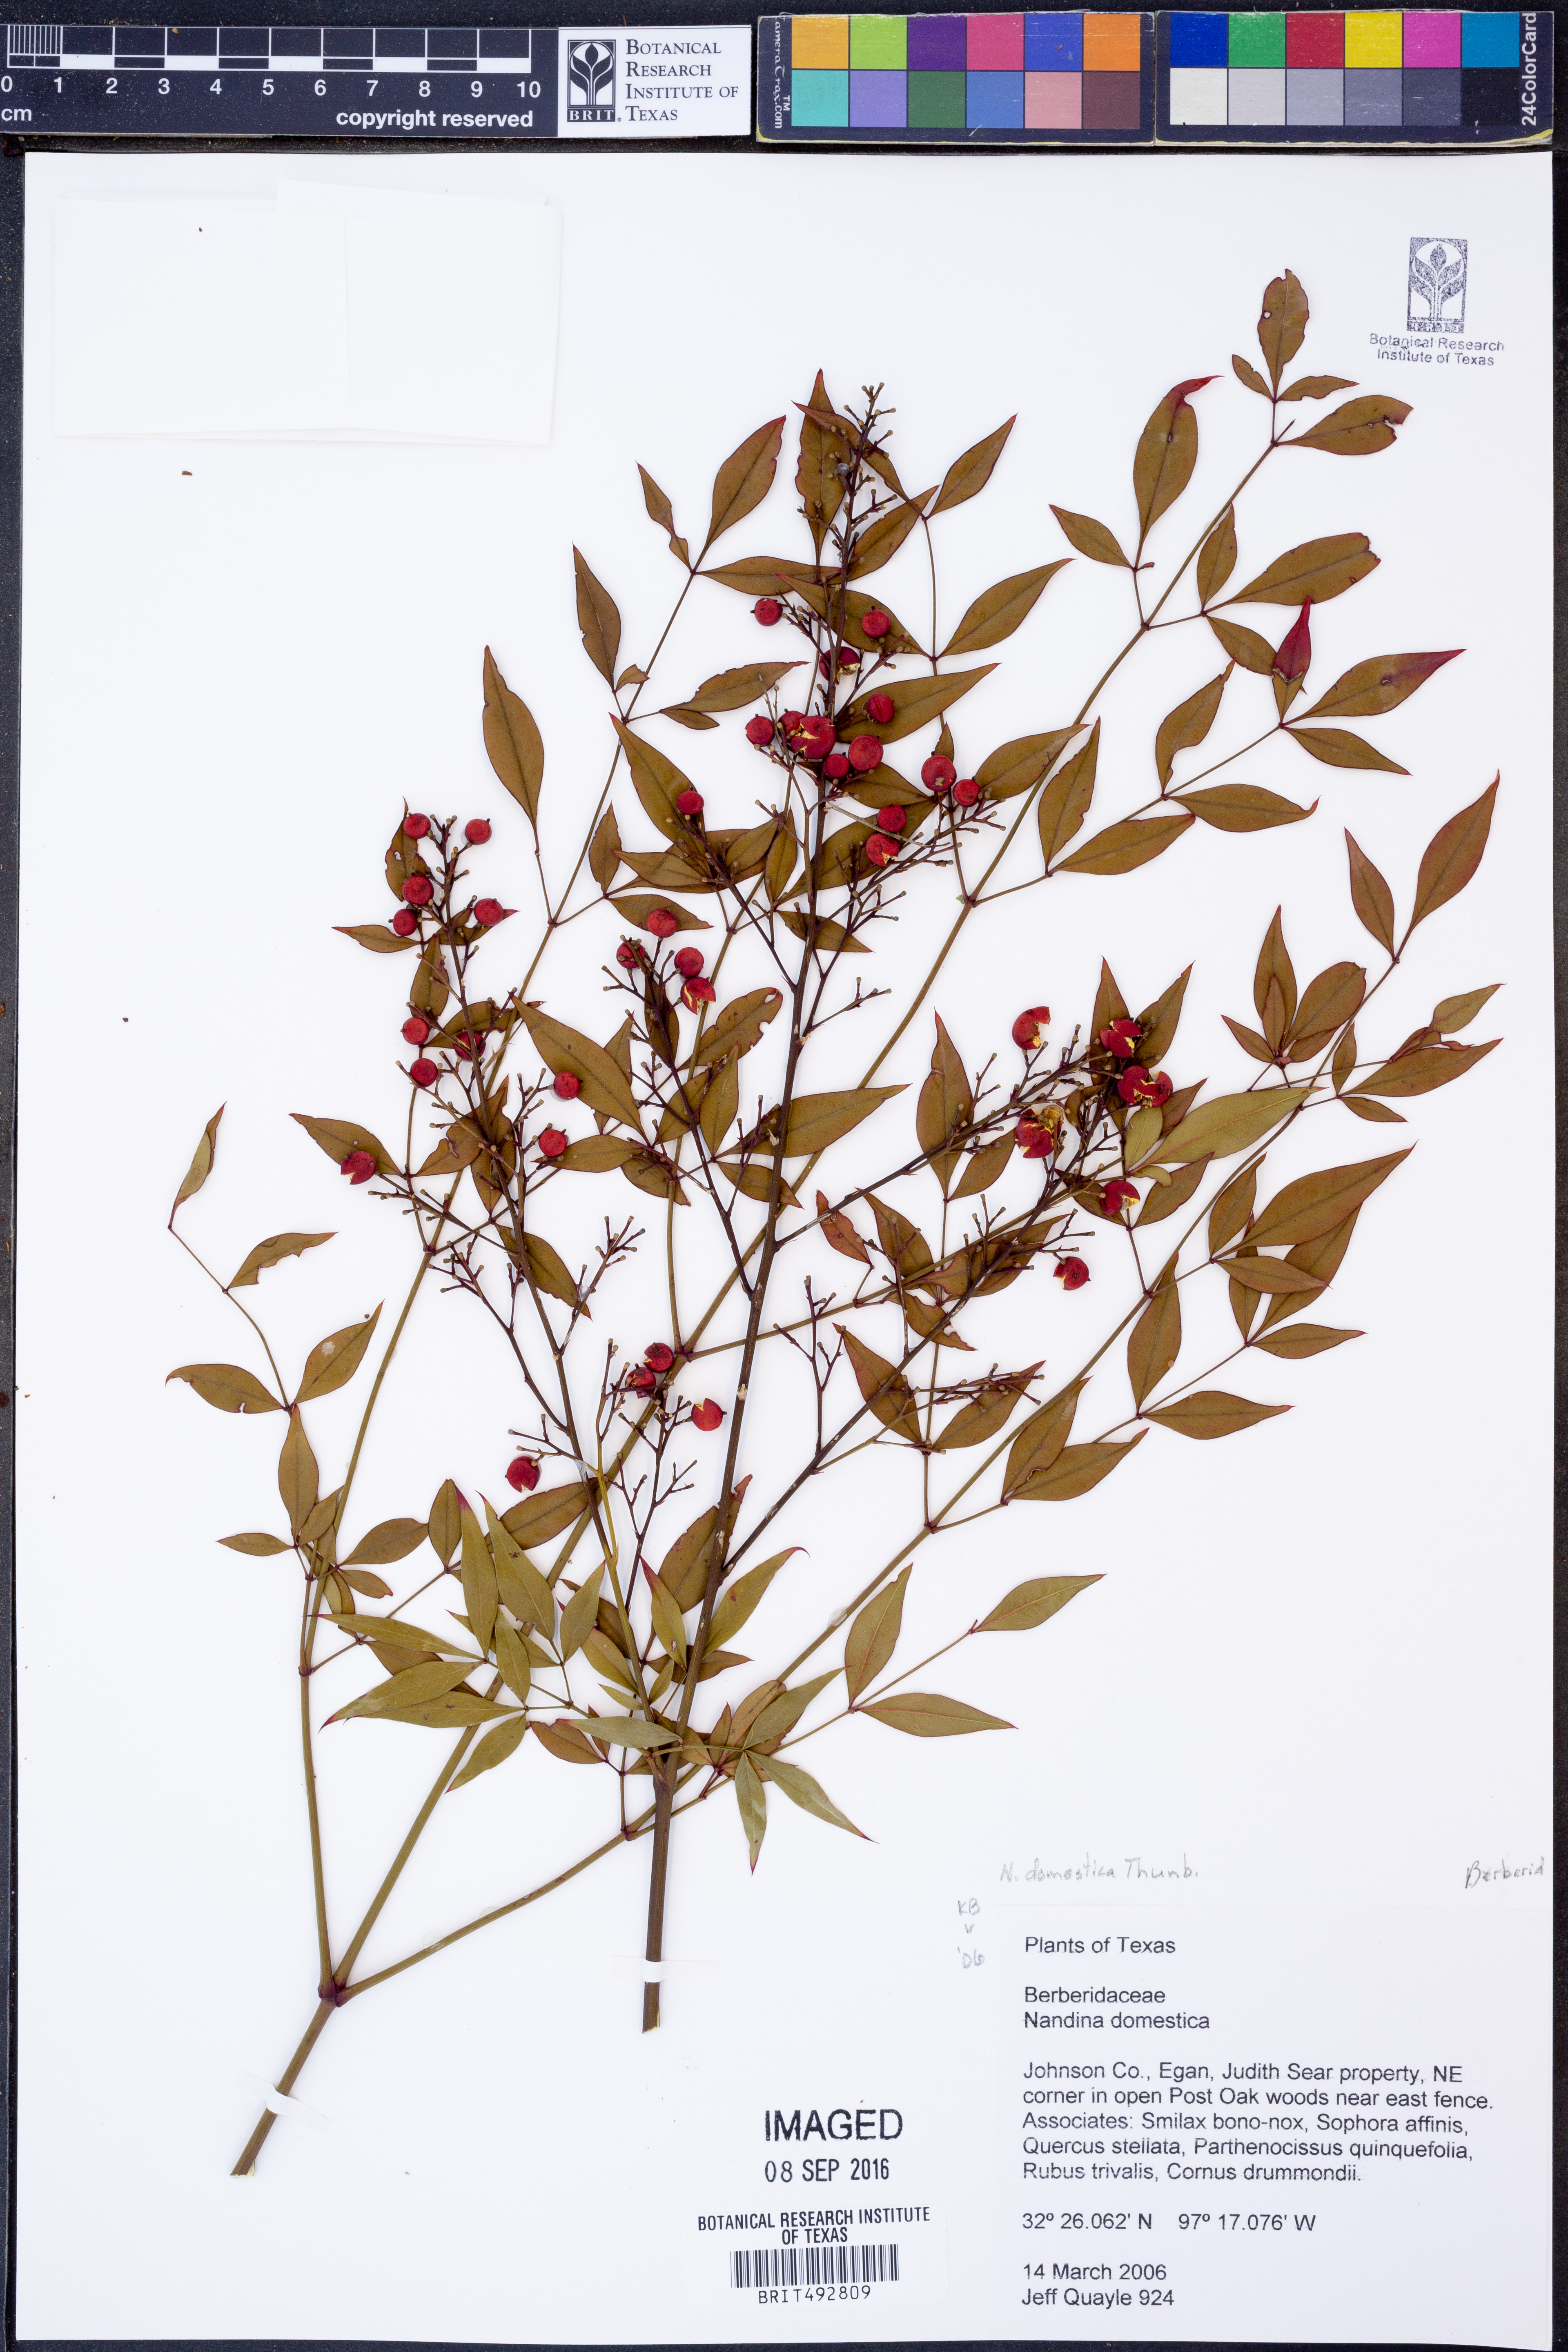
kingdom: Plantae
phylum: Tracheophyta
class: Magnoliopsida
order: Ranunculales
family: Berberidaceae
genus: Nandina
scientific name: Nandina domestica
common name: Sacred bamboo
